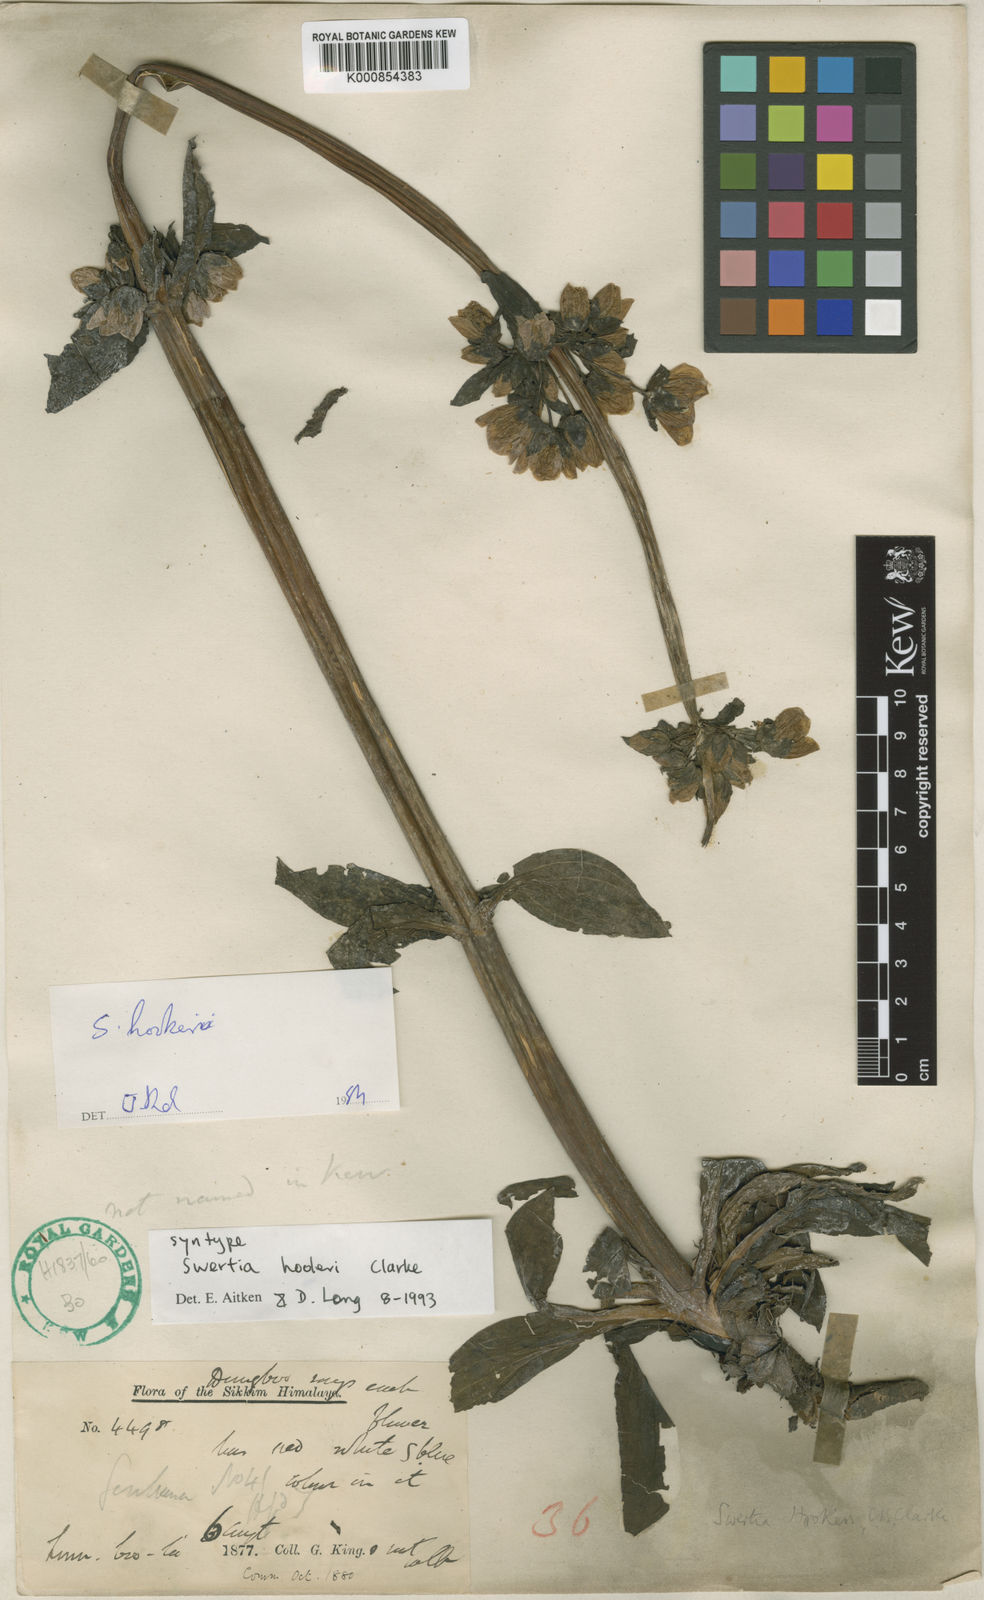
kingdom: Plantae
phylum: Tracheophyta
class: Magnoliopsida
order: Gentianales
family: Gentianaceae
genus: Swertia
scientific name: Swertia hookeri
